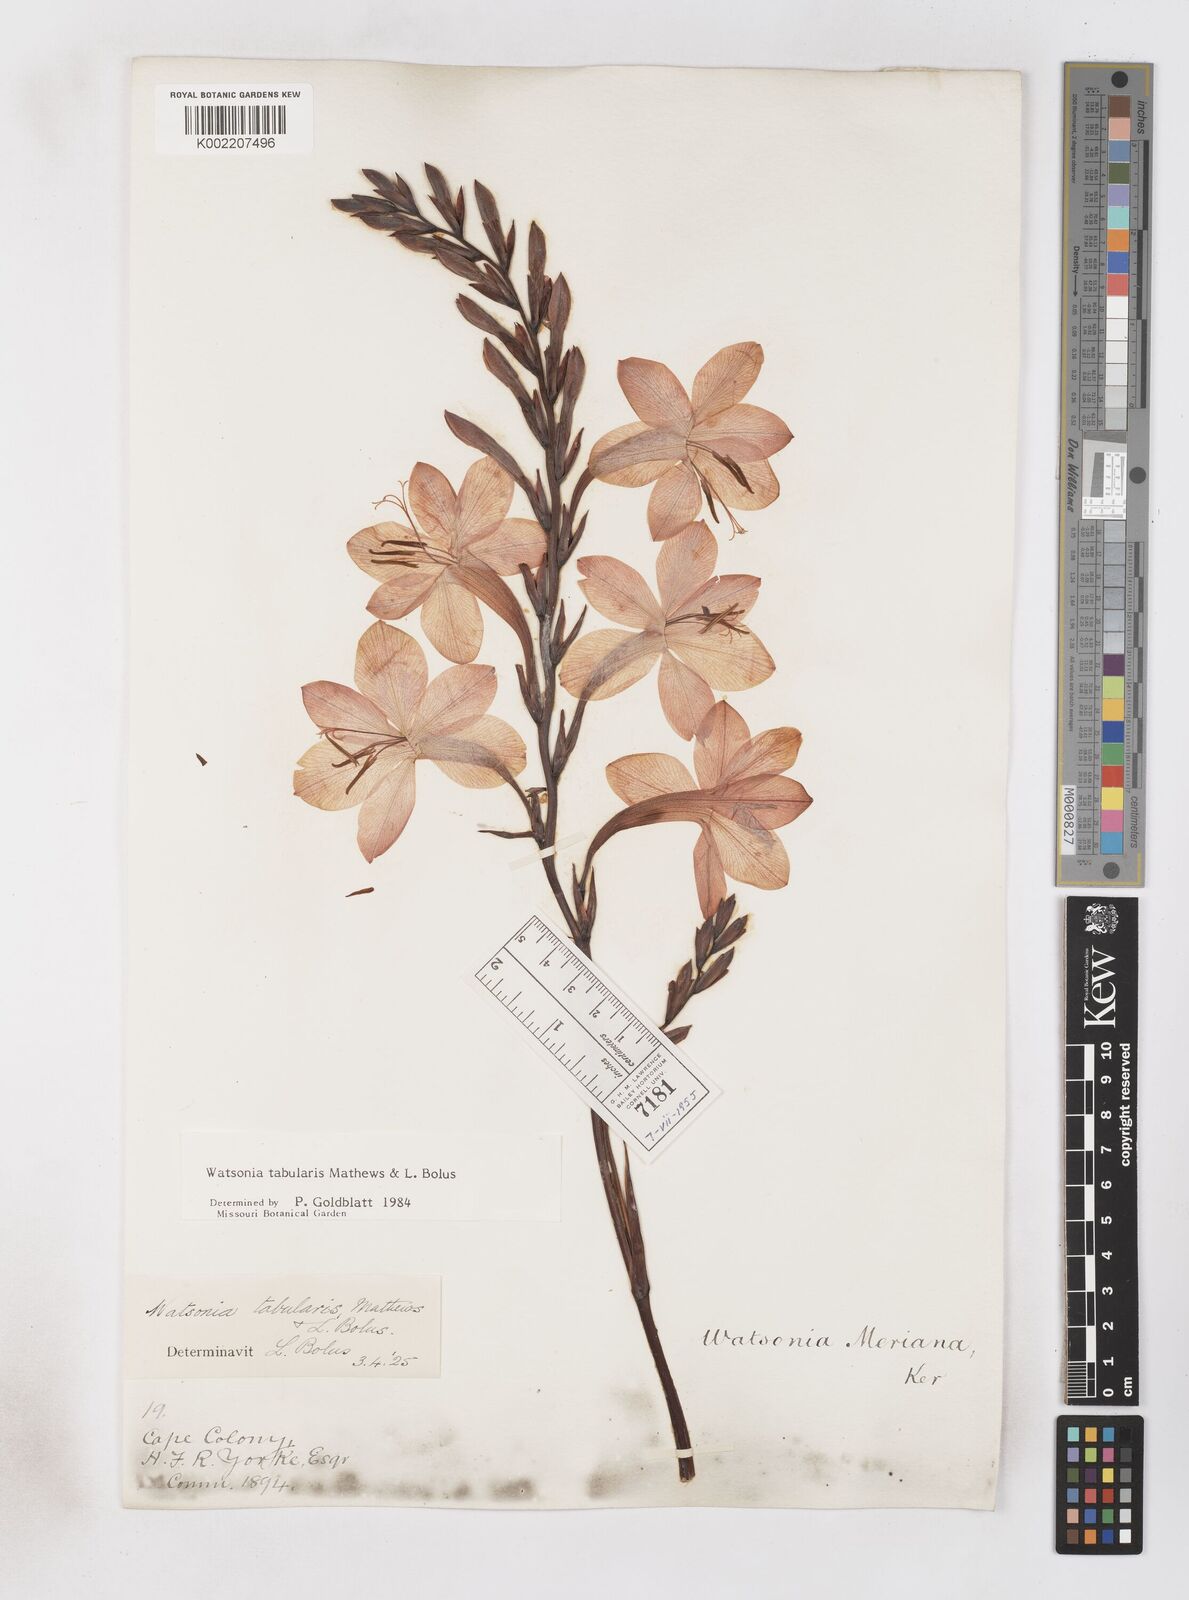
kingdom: Plantae
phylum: Tracheophyta
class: Liliopsida
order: Asparagales
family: Iridaceae
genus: Watsonia
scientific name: Watsonia tabularis
